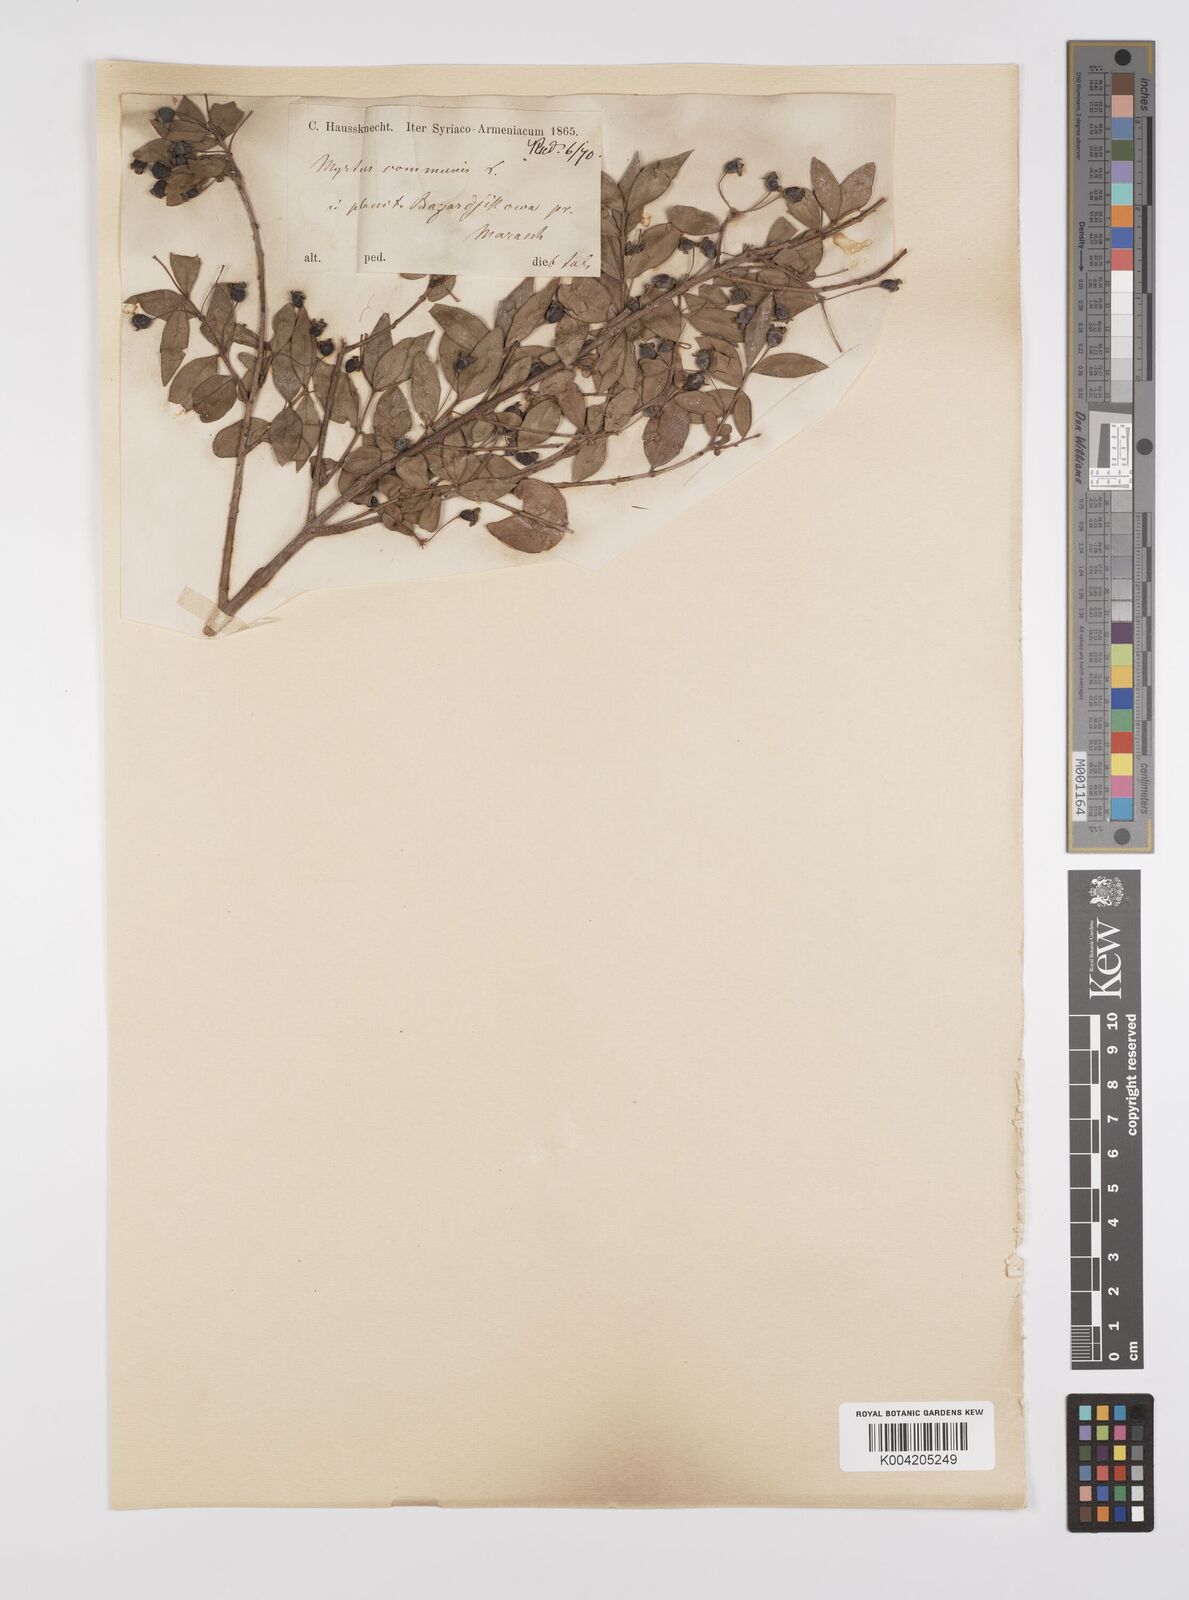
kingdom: Plantae
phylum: Tracheophyta
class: Magnoliopsida
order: Myrtales
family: Myrtaceae
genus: Myrtus
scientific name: Myrtus communis
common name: Myrtle
